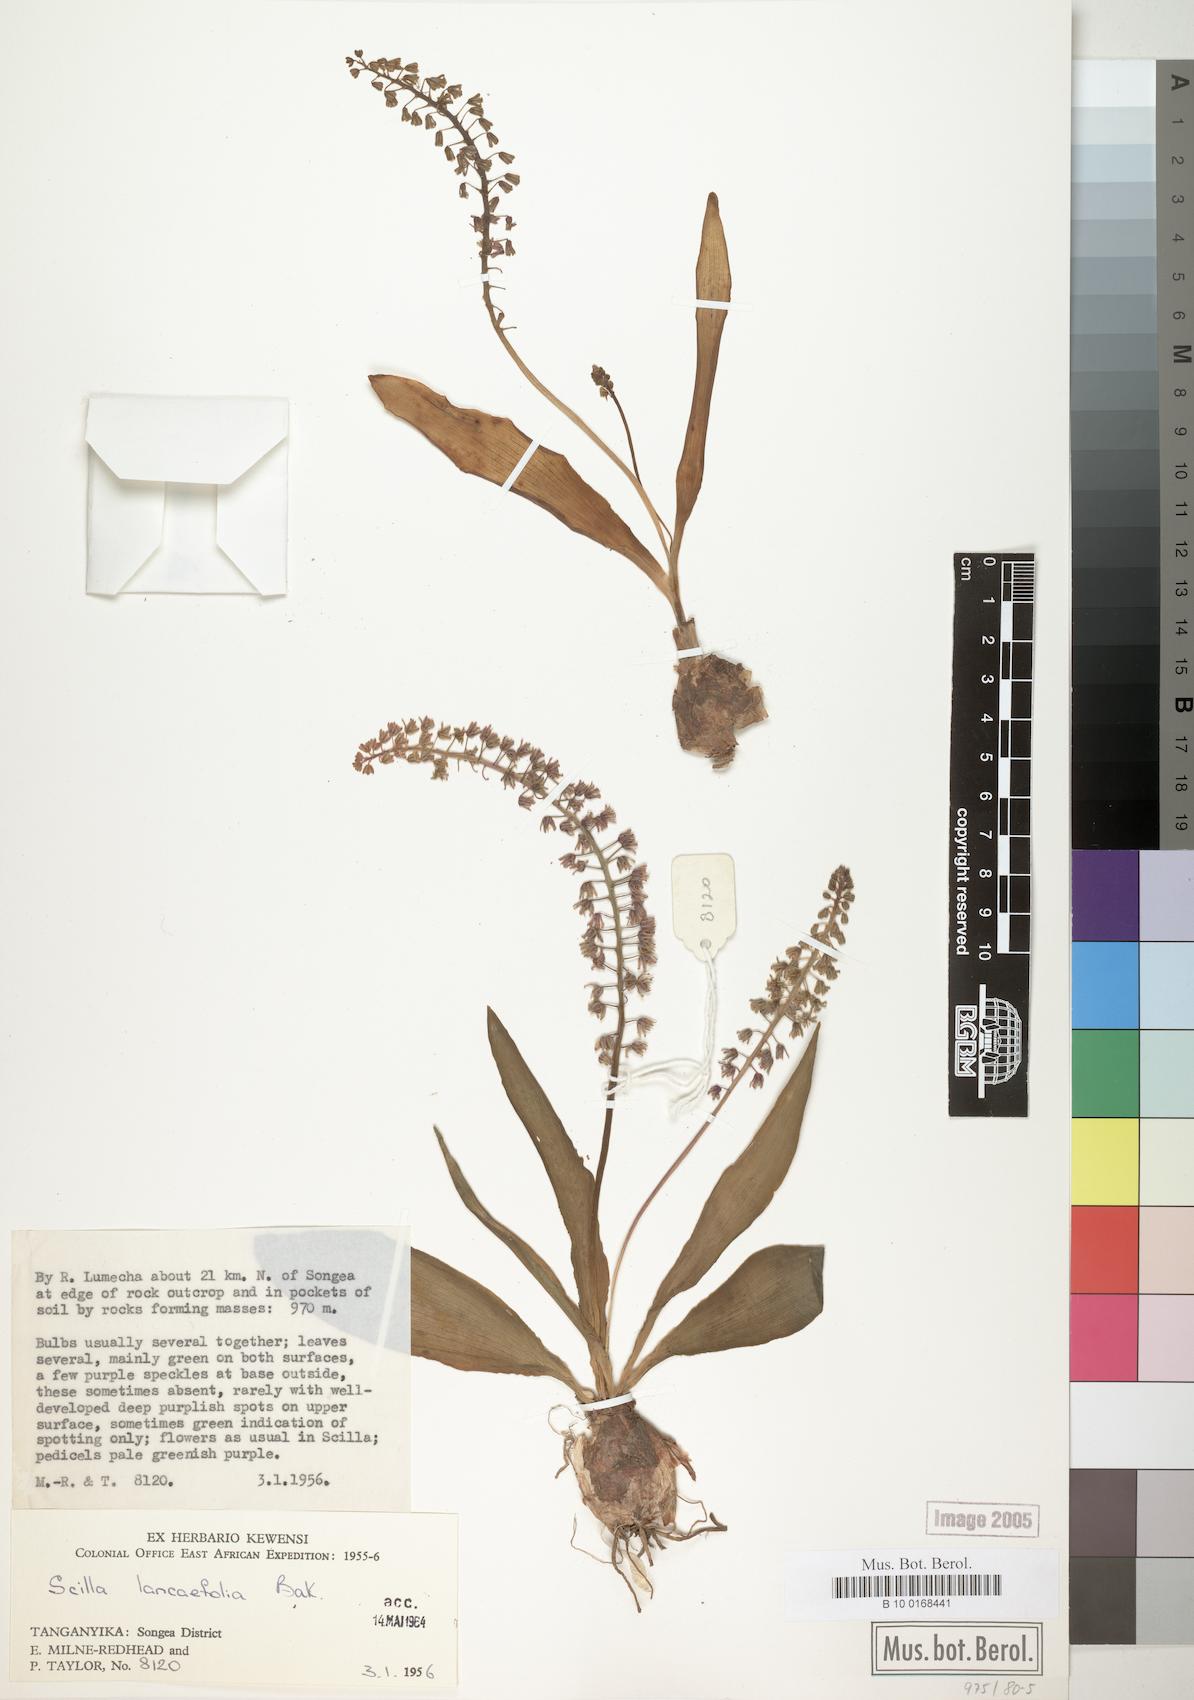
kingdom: Plantae
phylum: Tracheophyta
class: Liliopsida
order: Asparagales
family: Asparagaceae
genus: Ledebouria
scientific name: Ledebouria revoluta
